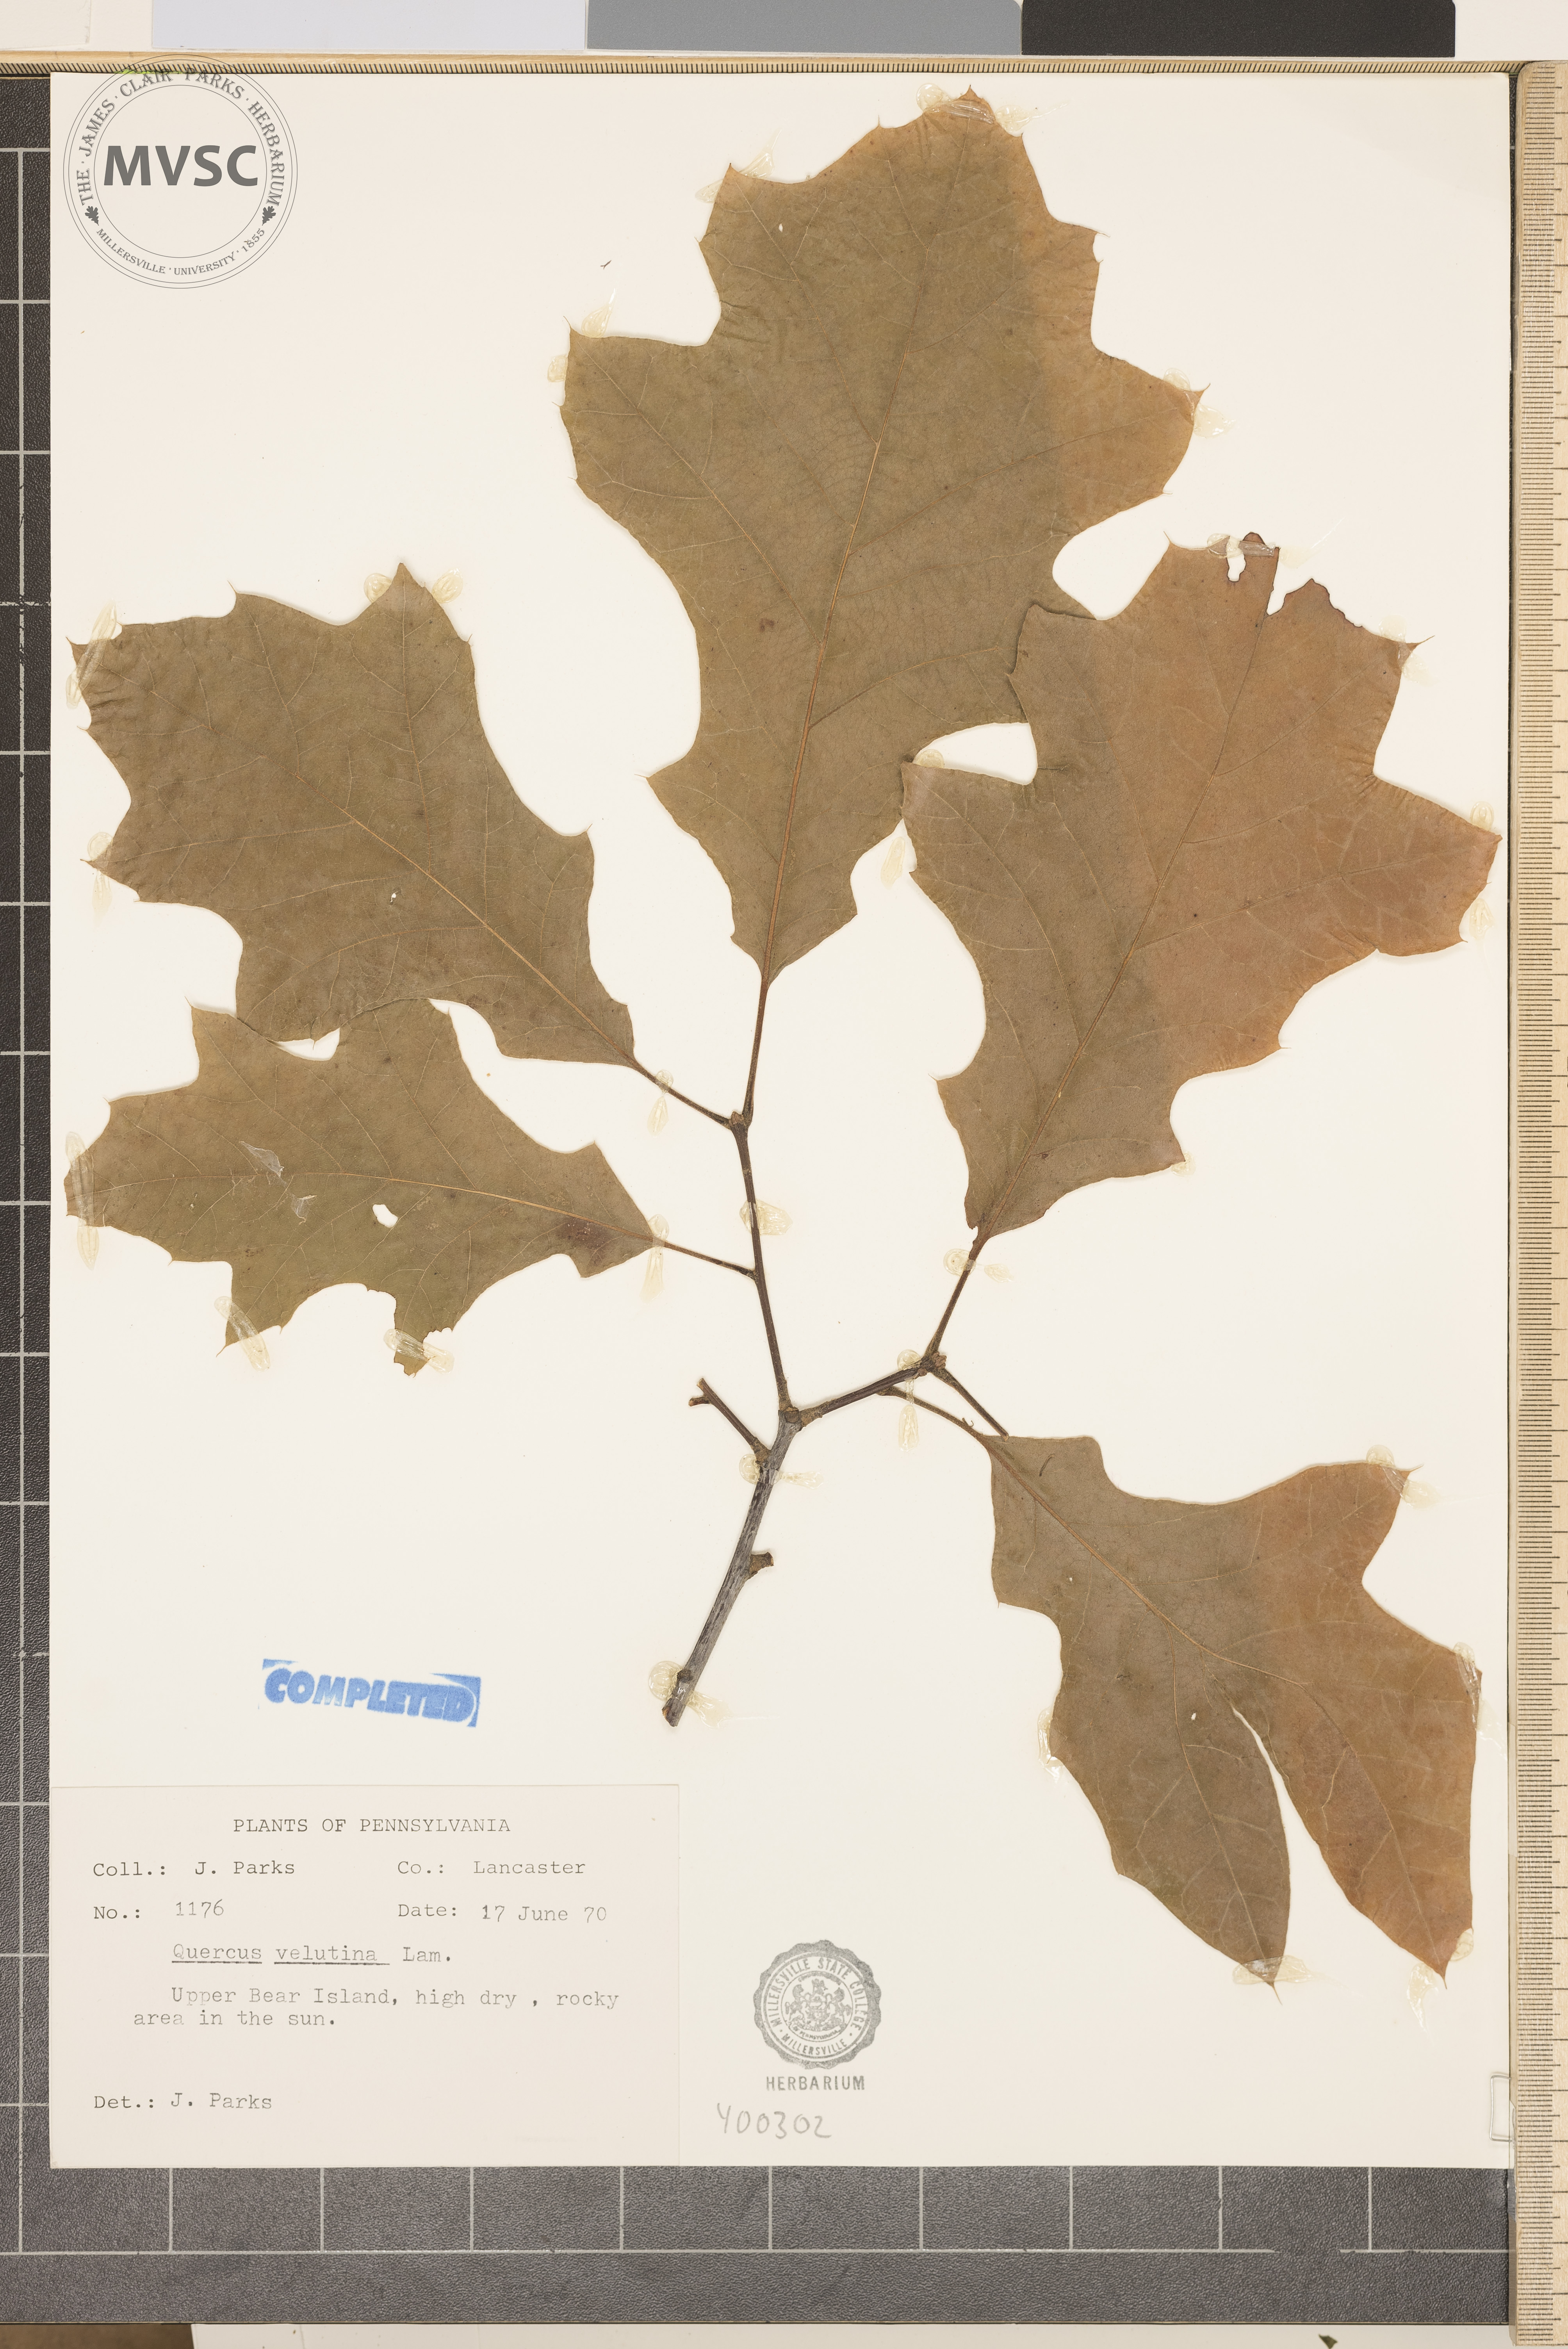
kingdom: Plantae
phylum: Tracheophyta
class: Magnoliopsida
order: Fagales
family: Fagaceae
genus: Quercus
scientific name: Quercus velutina
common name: black oak
